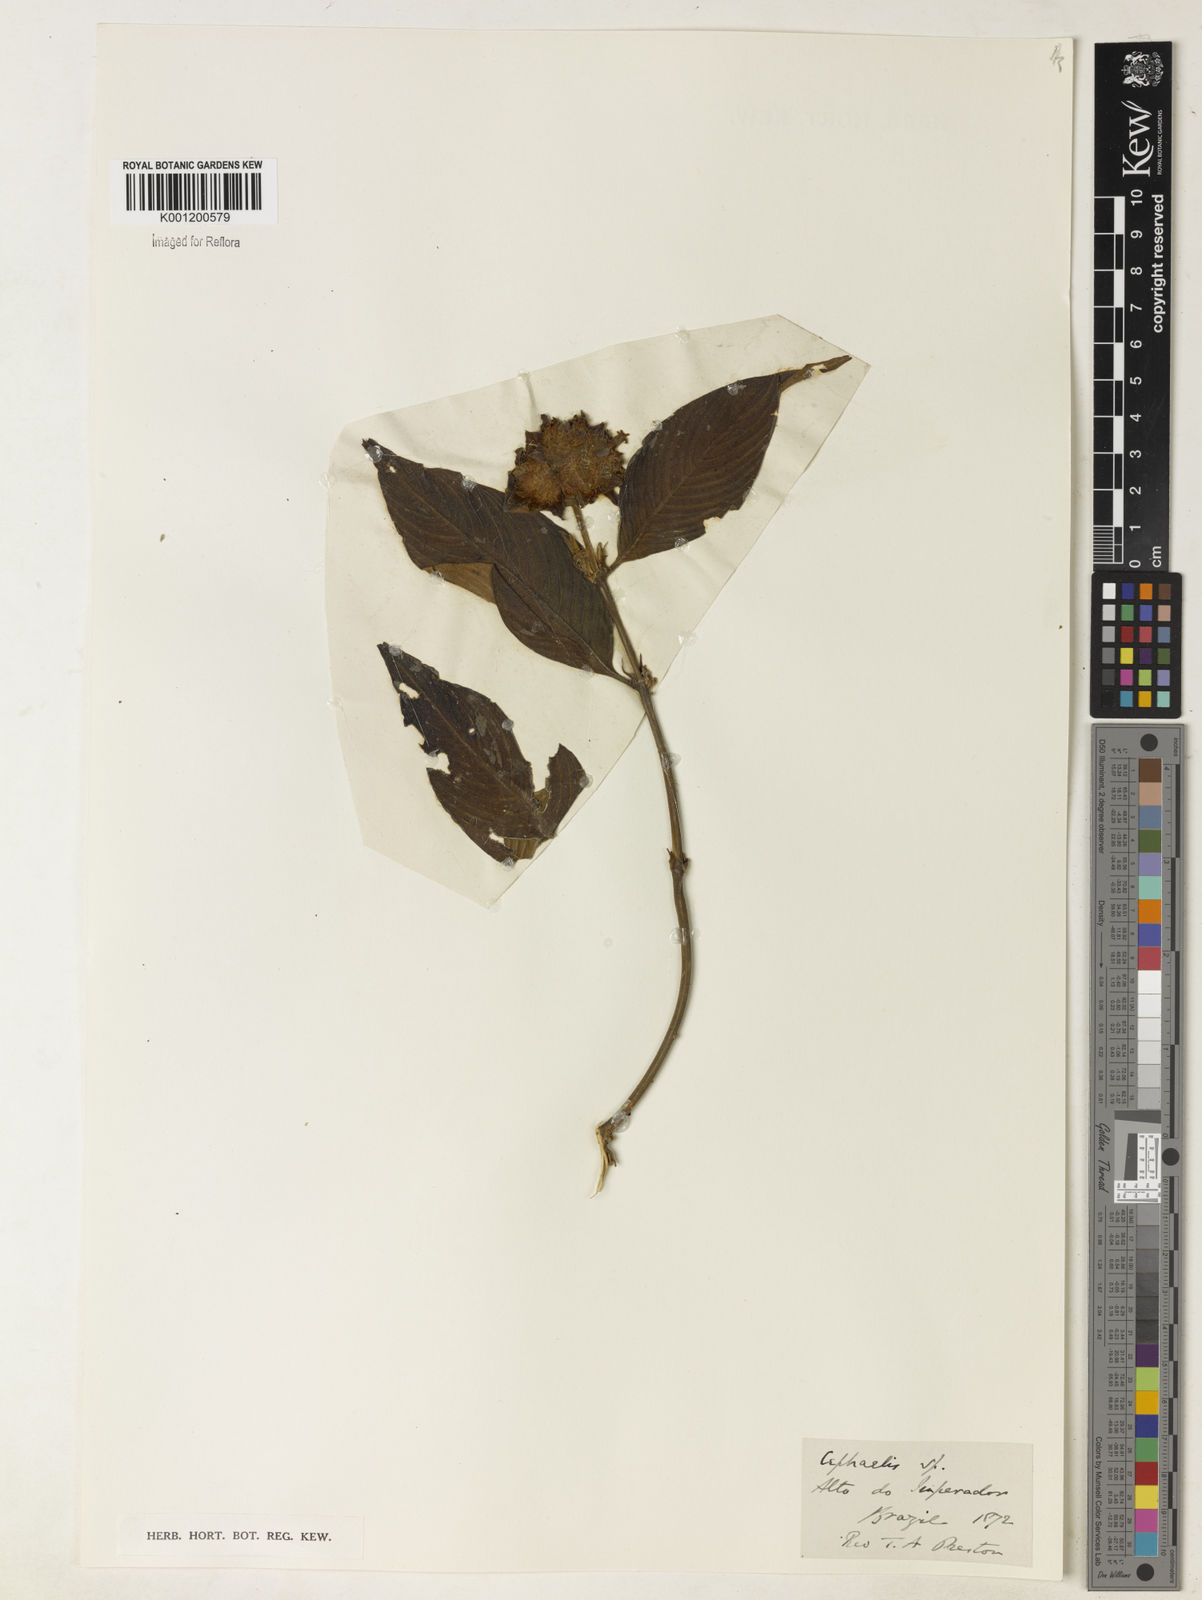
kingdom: Plantae
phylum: Tracheophyta
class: Magnoliopsida
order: Gentianales
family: Rubiaceae
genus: Psychotria
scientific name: Psychotria
